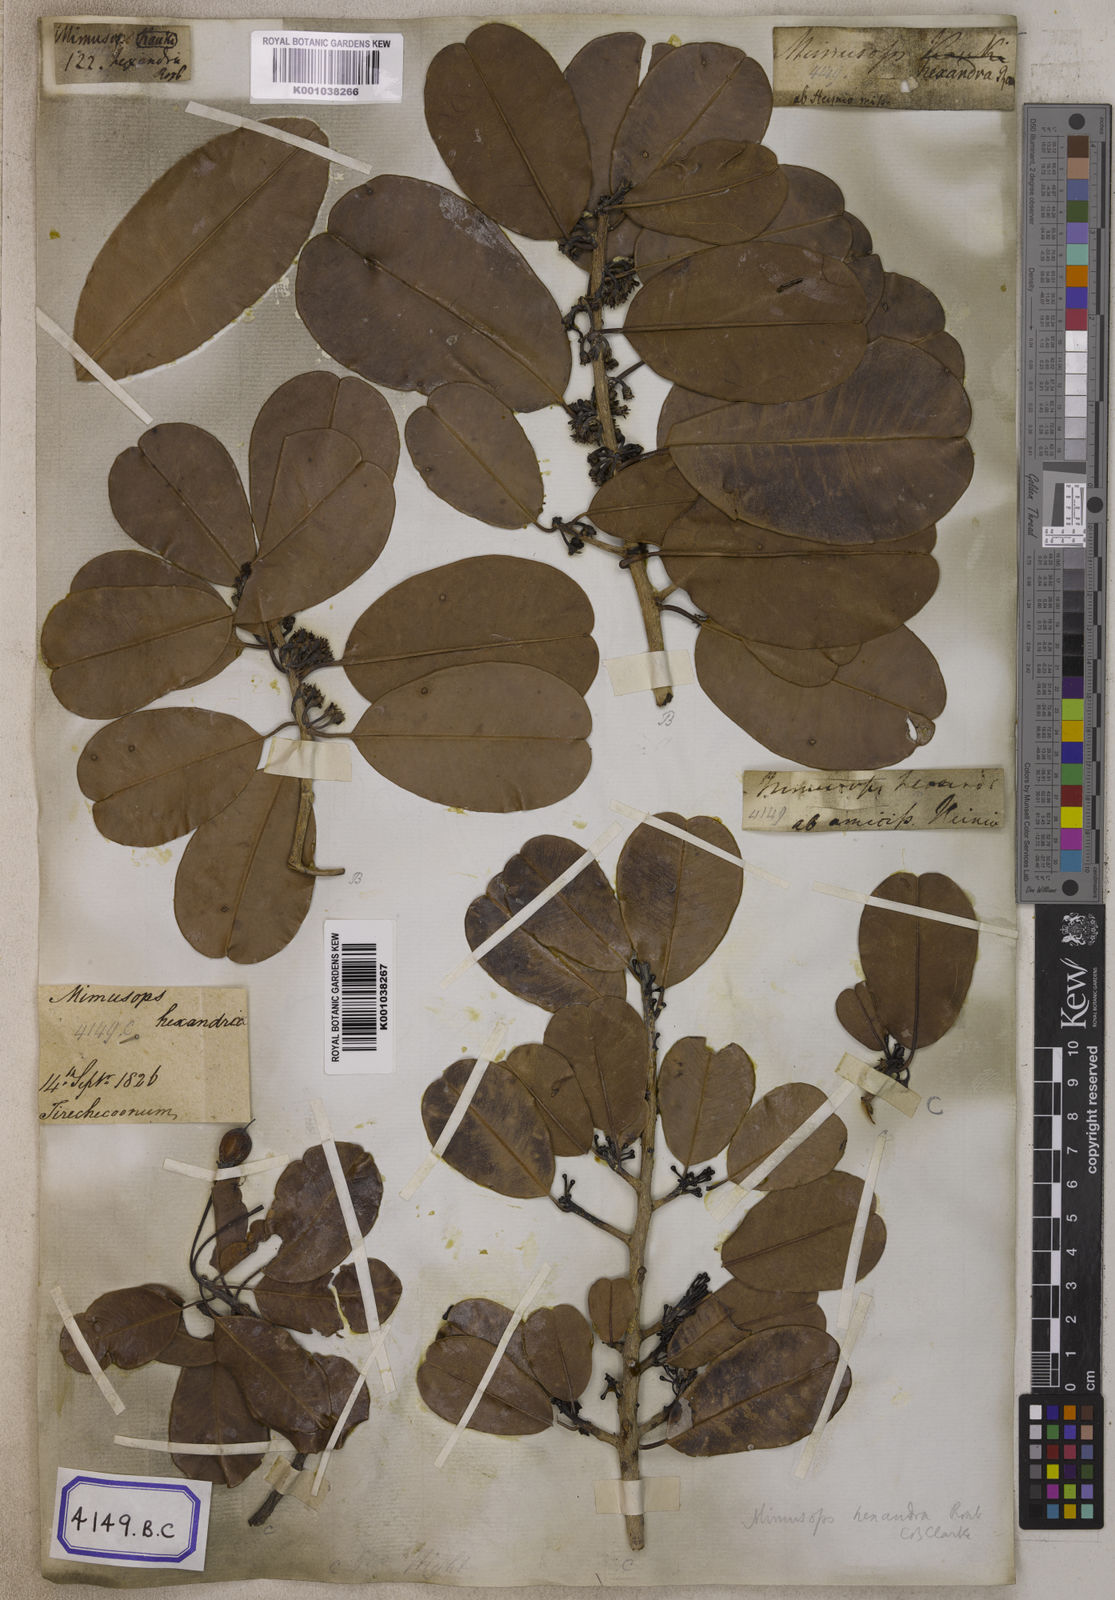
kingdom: Plantae
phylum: Tracheophyta
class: Magnoliopsida
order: Ericales
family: Sapotaceae
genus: Manilkara
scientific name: Manilkara kauki
